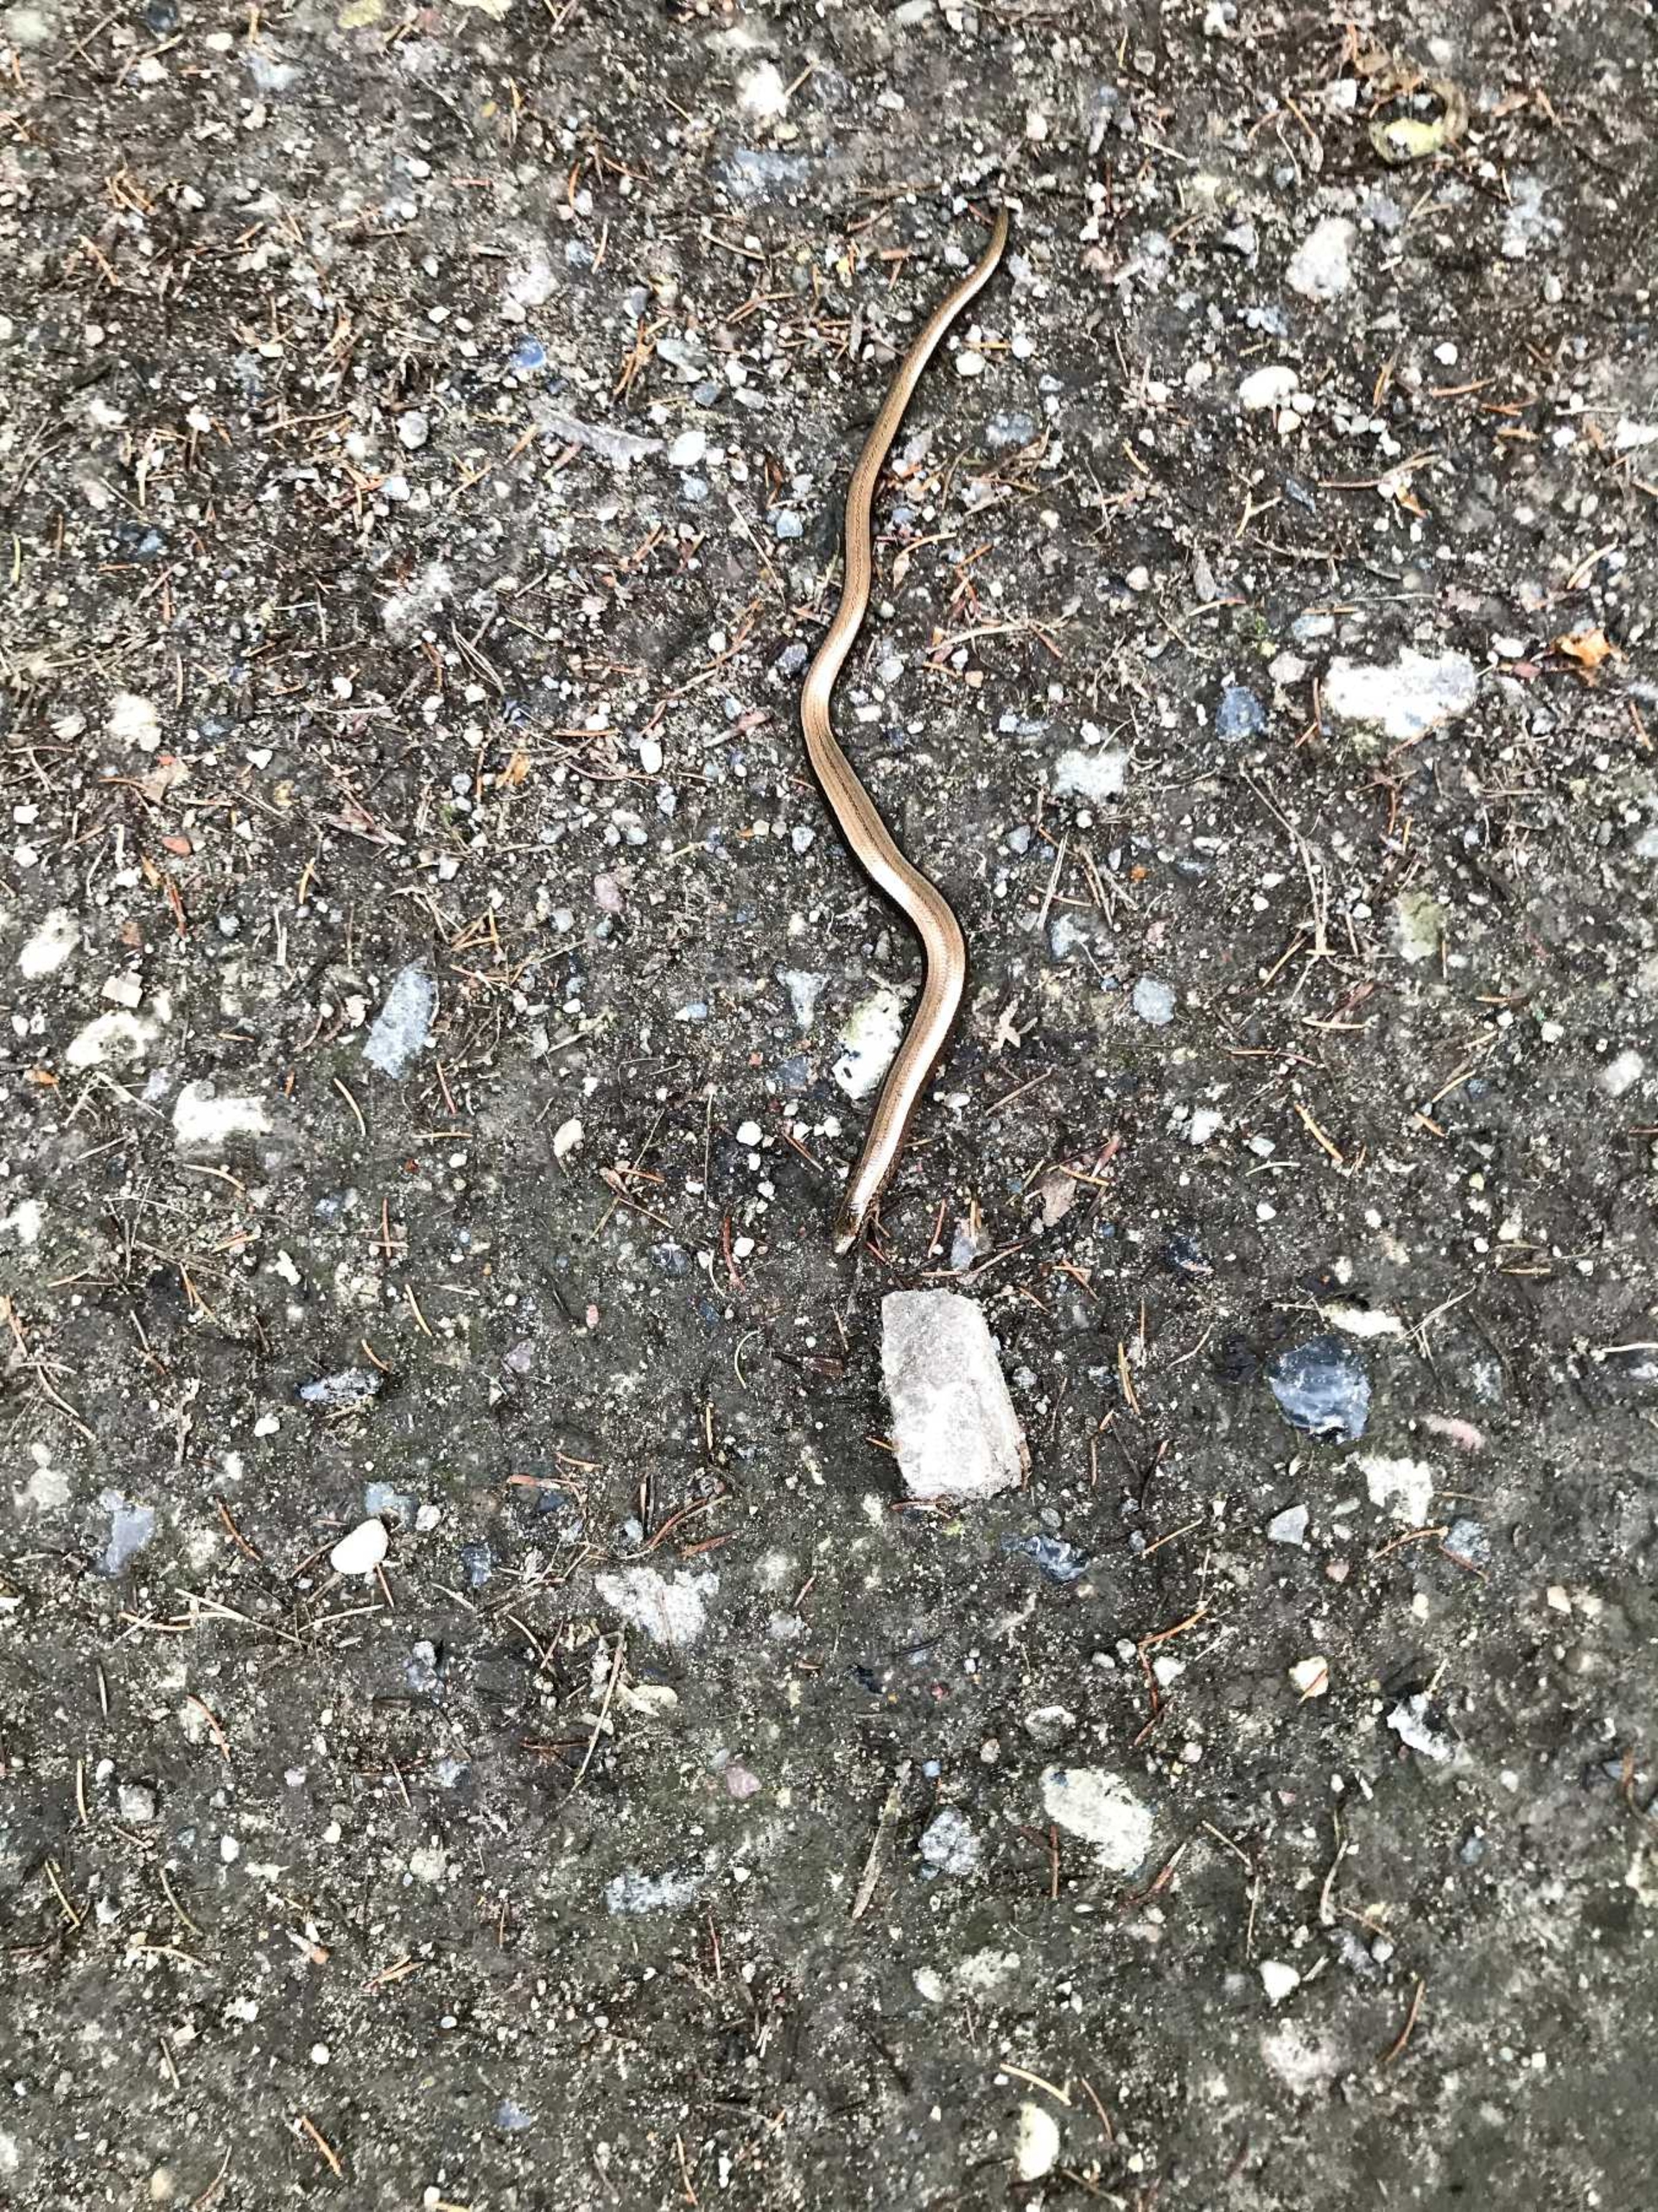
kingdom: Animalia
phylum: Chordata
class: Squamata
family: Anguidae
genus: Anguis
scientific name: Anguis fragilis
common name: Stålorm
